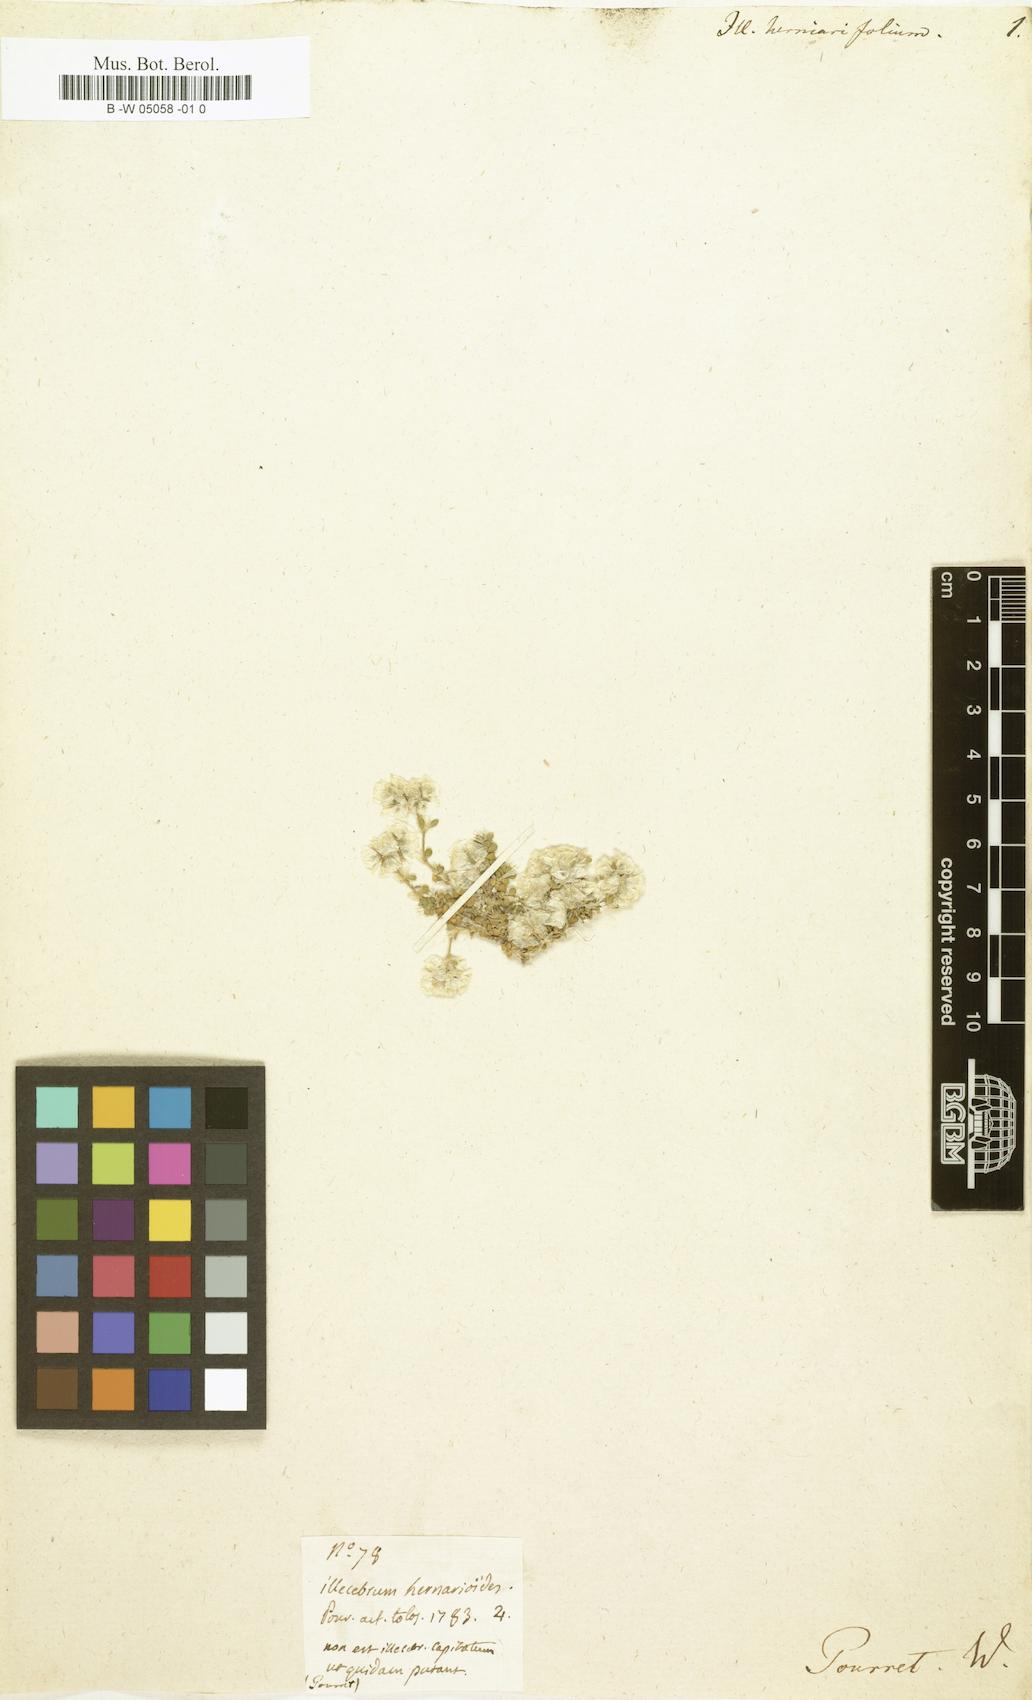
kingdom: Plantae
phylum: Tracheophyta
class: Magnoliopsida
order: Caryophyllales
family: Caryophyllaceae
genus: Illecebrum
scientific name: Illecebrum
